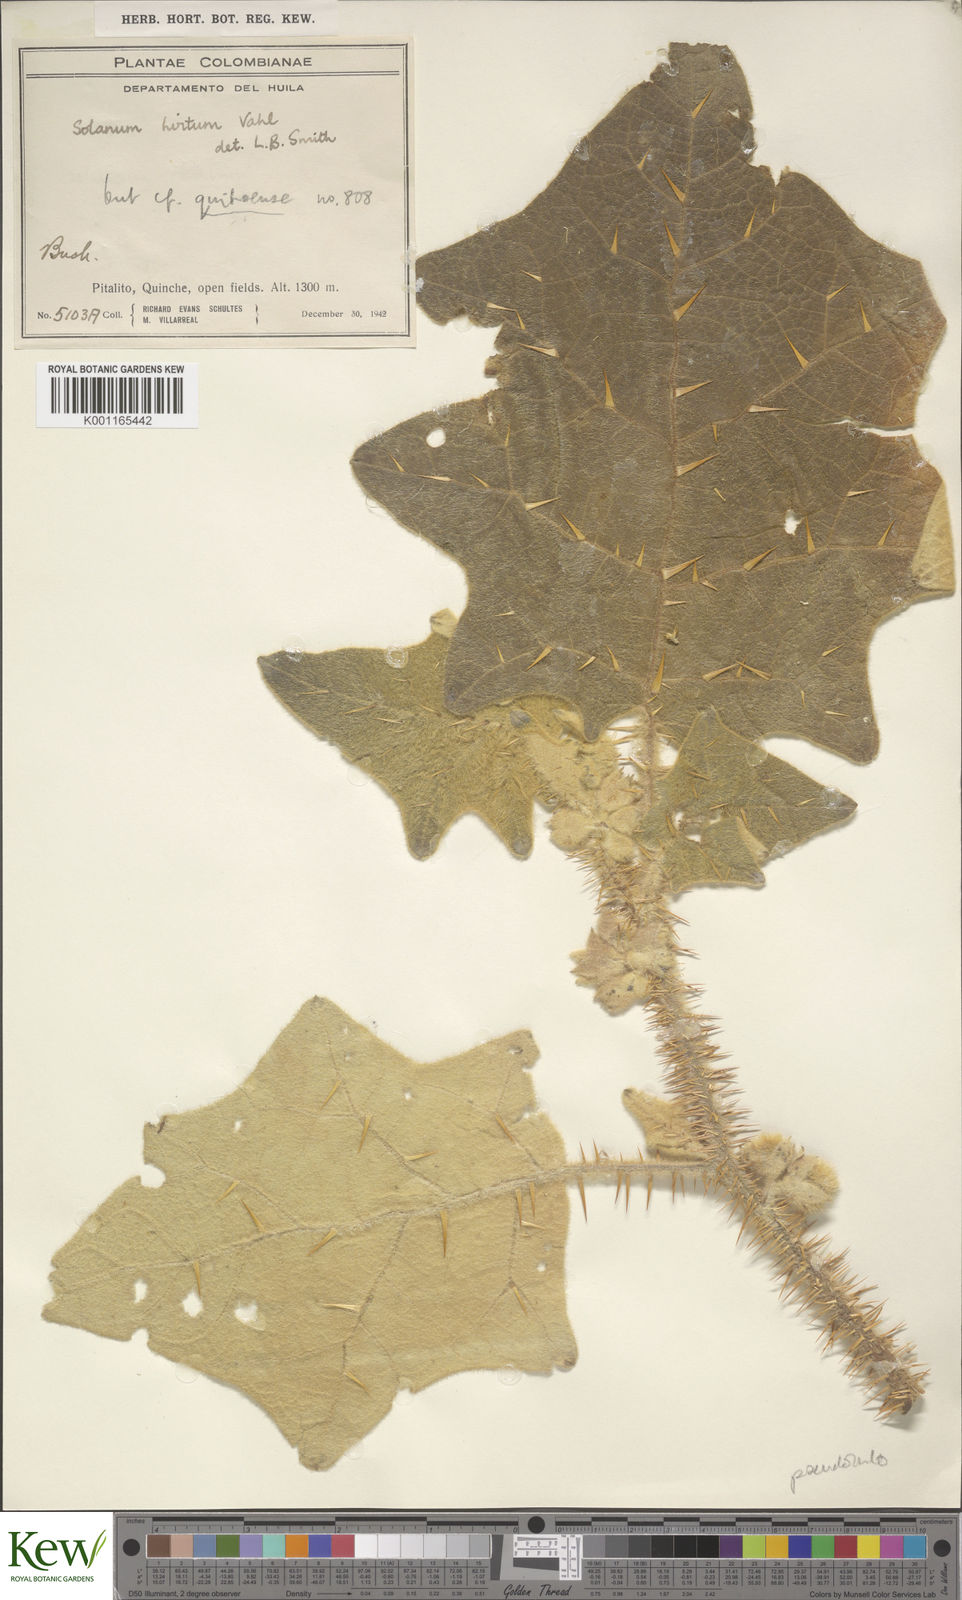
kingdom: Plantae
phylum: Tracheophyta
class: Magnoliopsida
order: Solanales
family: Solanaceae
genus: Solanum
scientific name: Solanum pseudolulo
